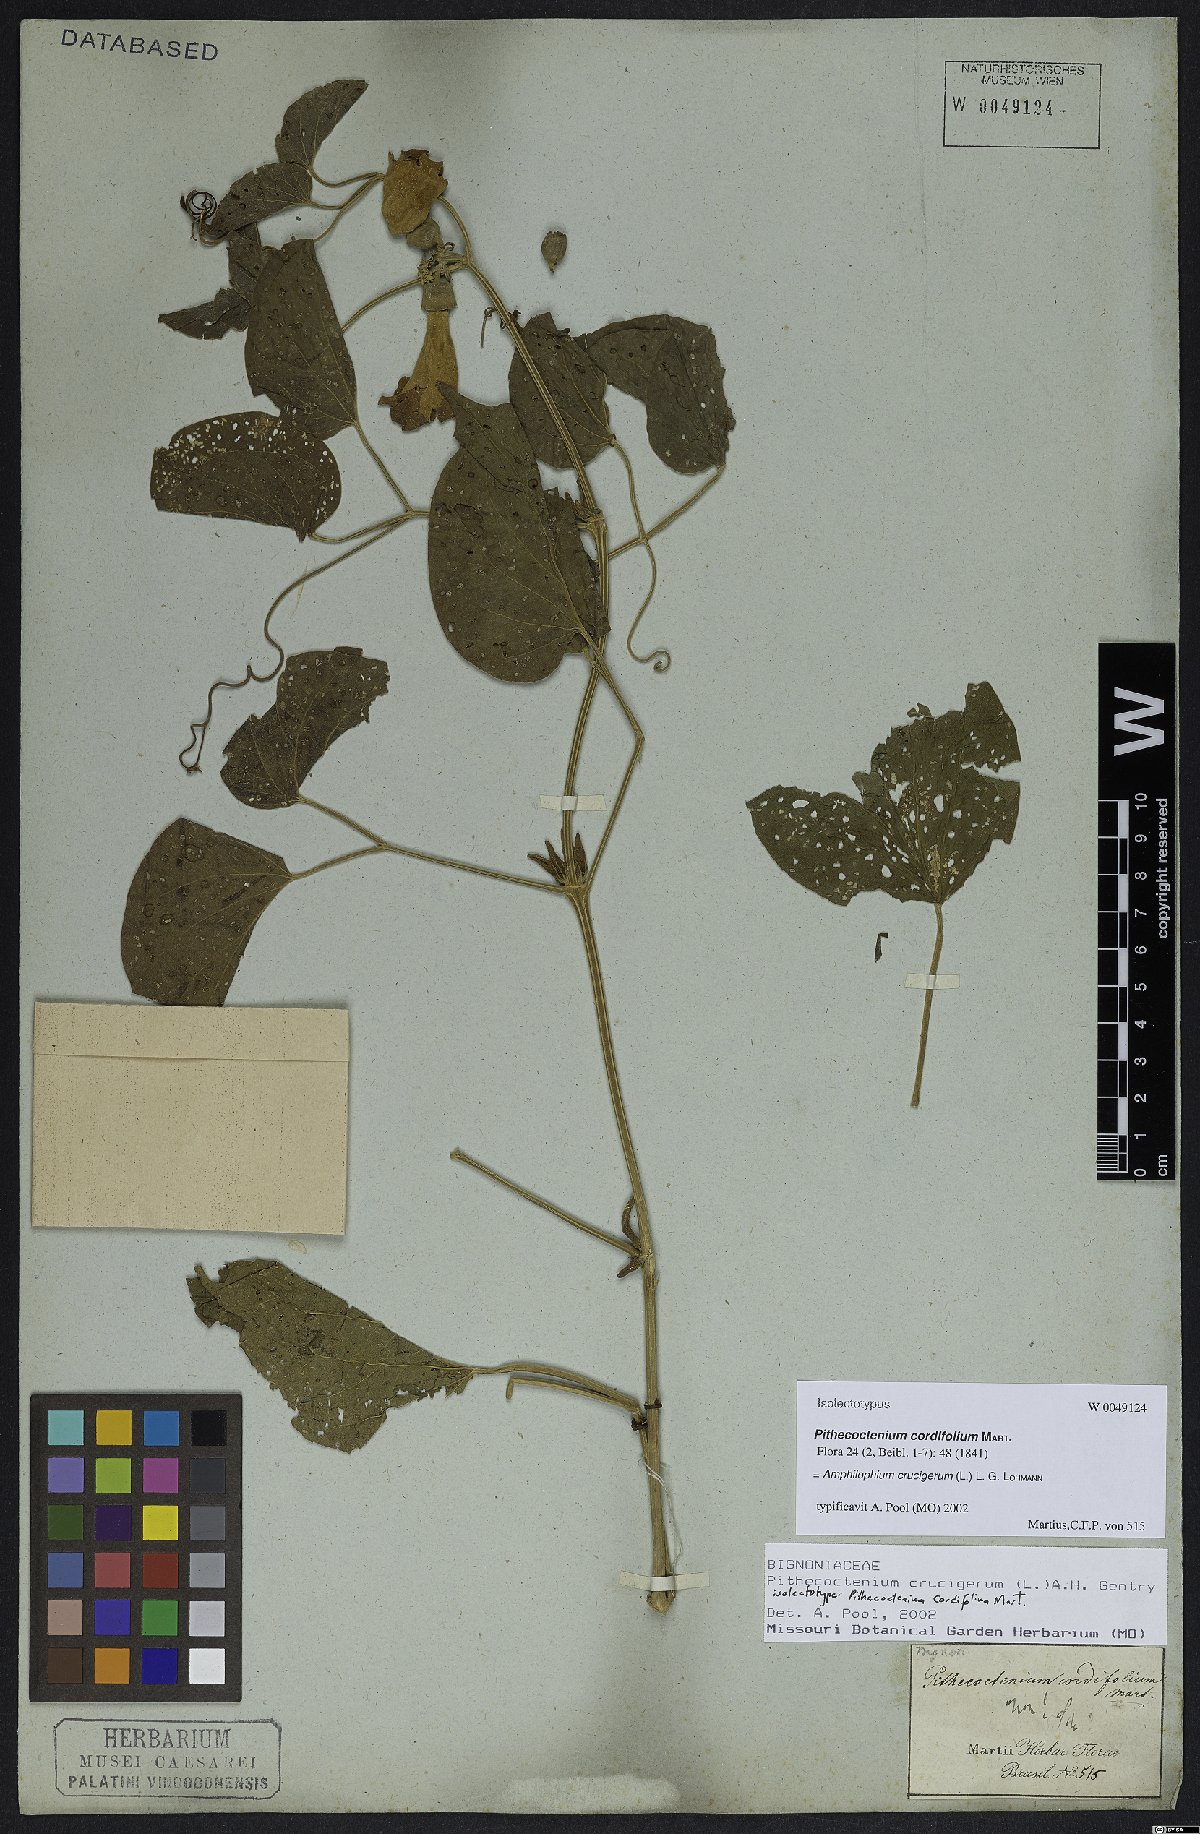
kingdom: Plantae
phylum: Tracheophyta
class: Magnoliopsida
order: Lamiales
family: Bignoniaceae
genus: Amphilophium
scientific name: Amphilophium crucigerum
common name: Monkey comb
